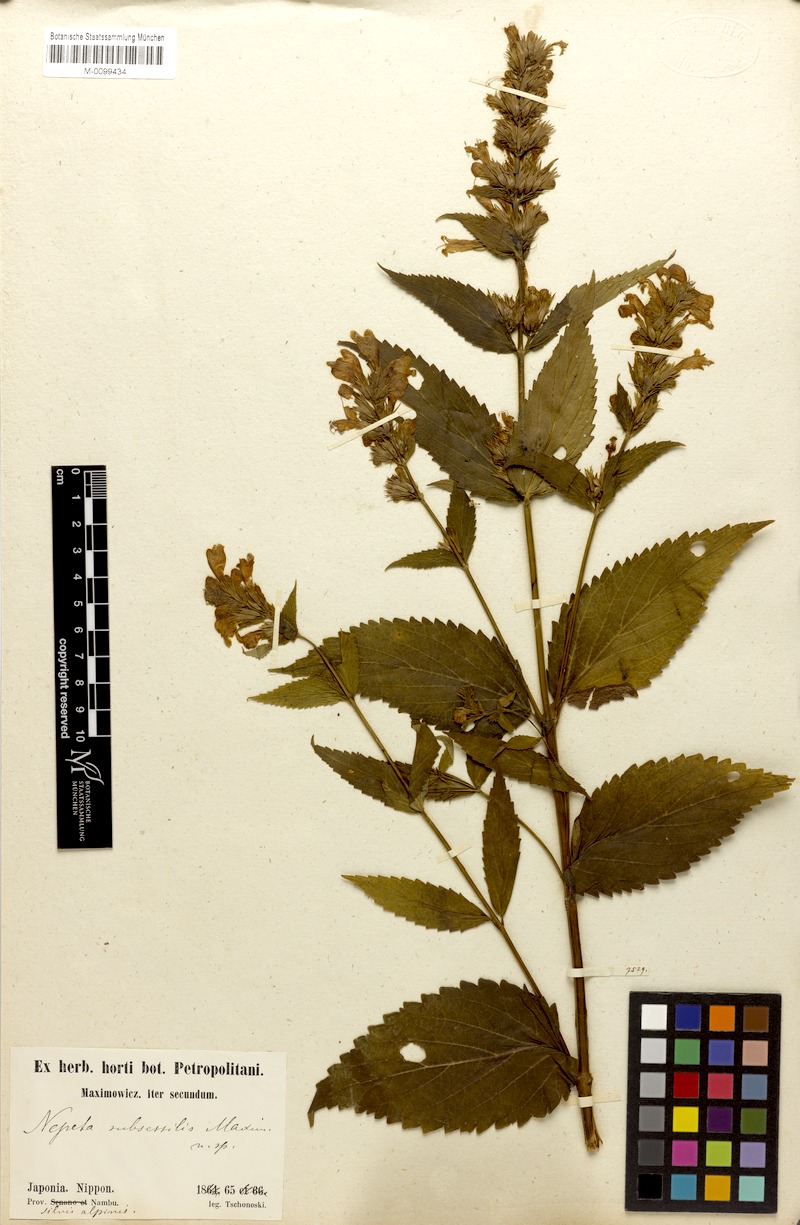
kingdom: Plantae
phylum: Tracheophyta
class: Magnoliopsida
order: Lamiales
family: Lamiaceae
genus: Nepeta
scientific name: Nepeta subsessilis
